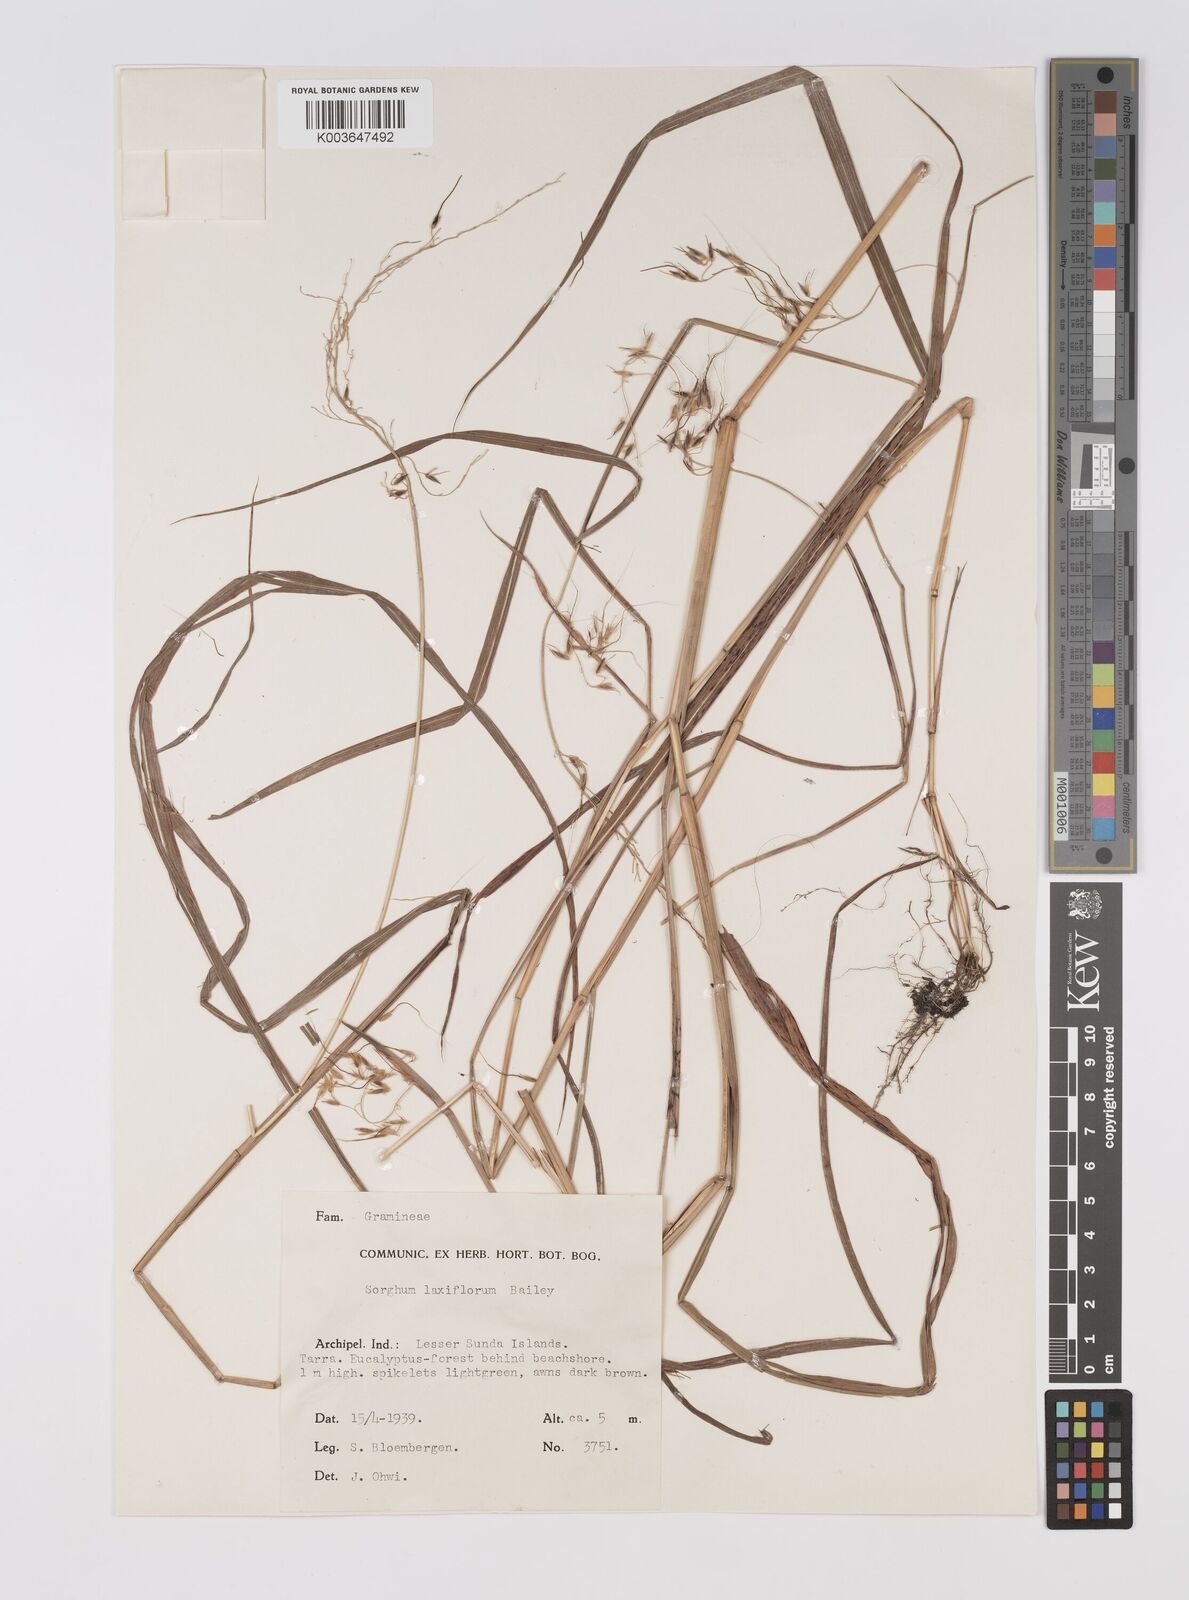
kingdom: Plantae
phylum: Tracheophyta
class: Liliopsida
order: Poales
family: Poaceae
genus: Sorghum
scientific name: Sorghum laxiflorum
